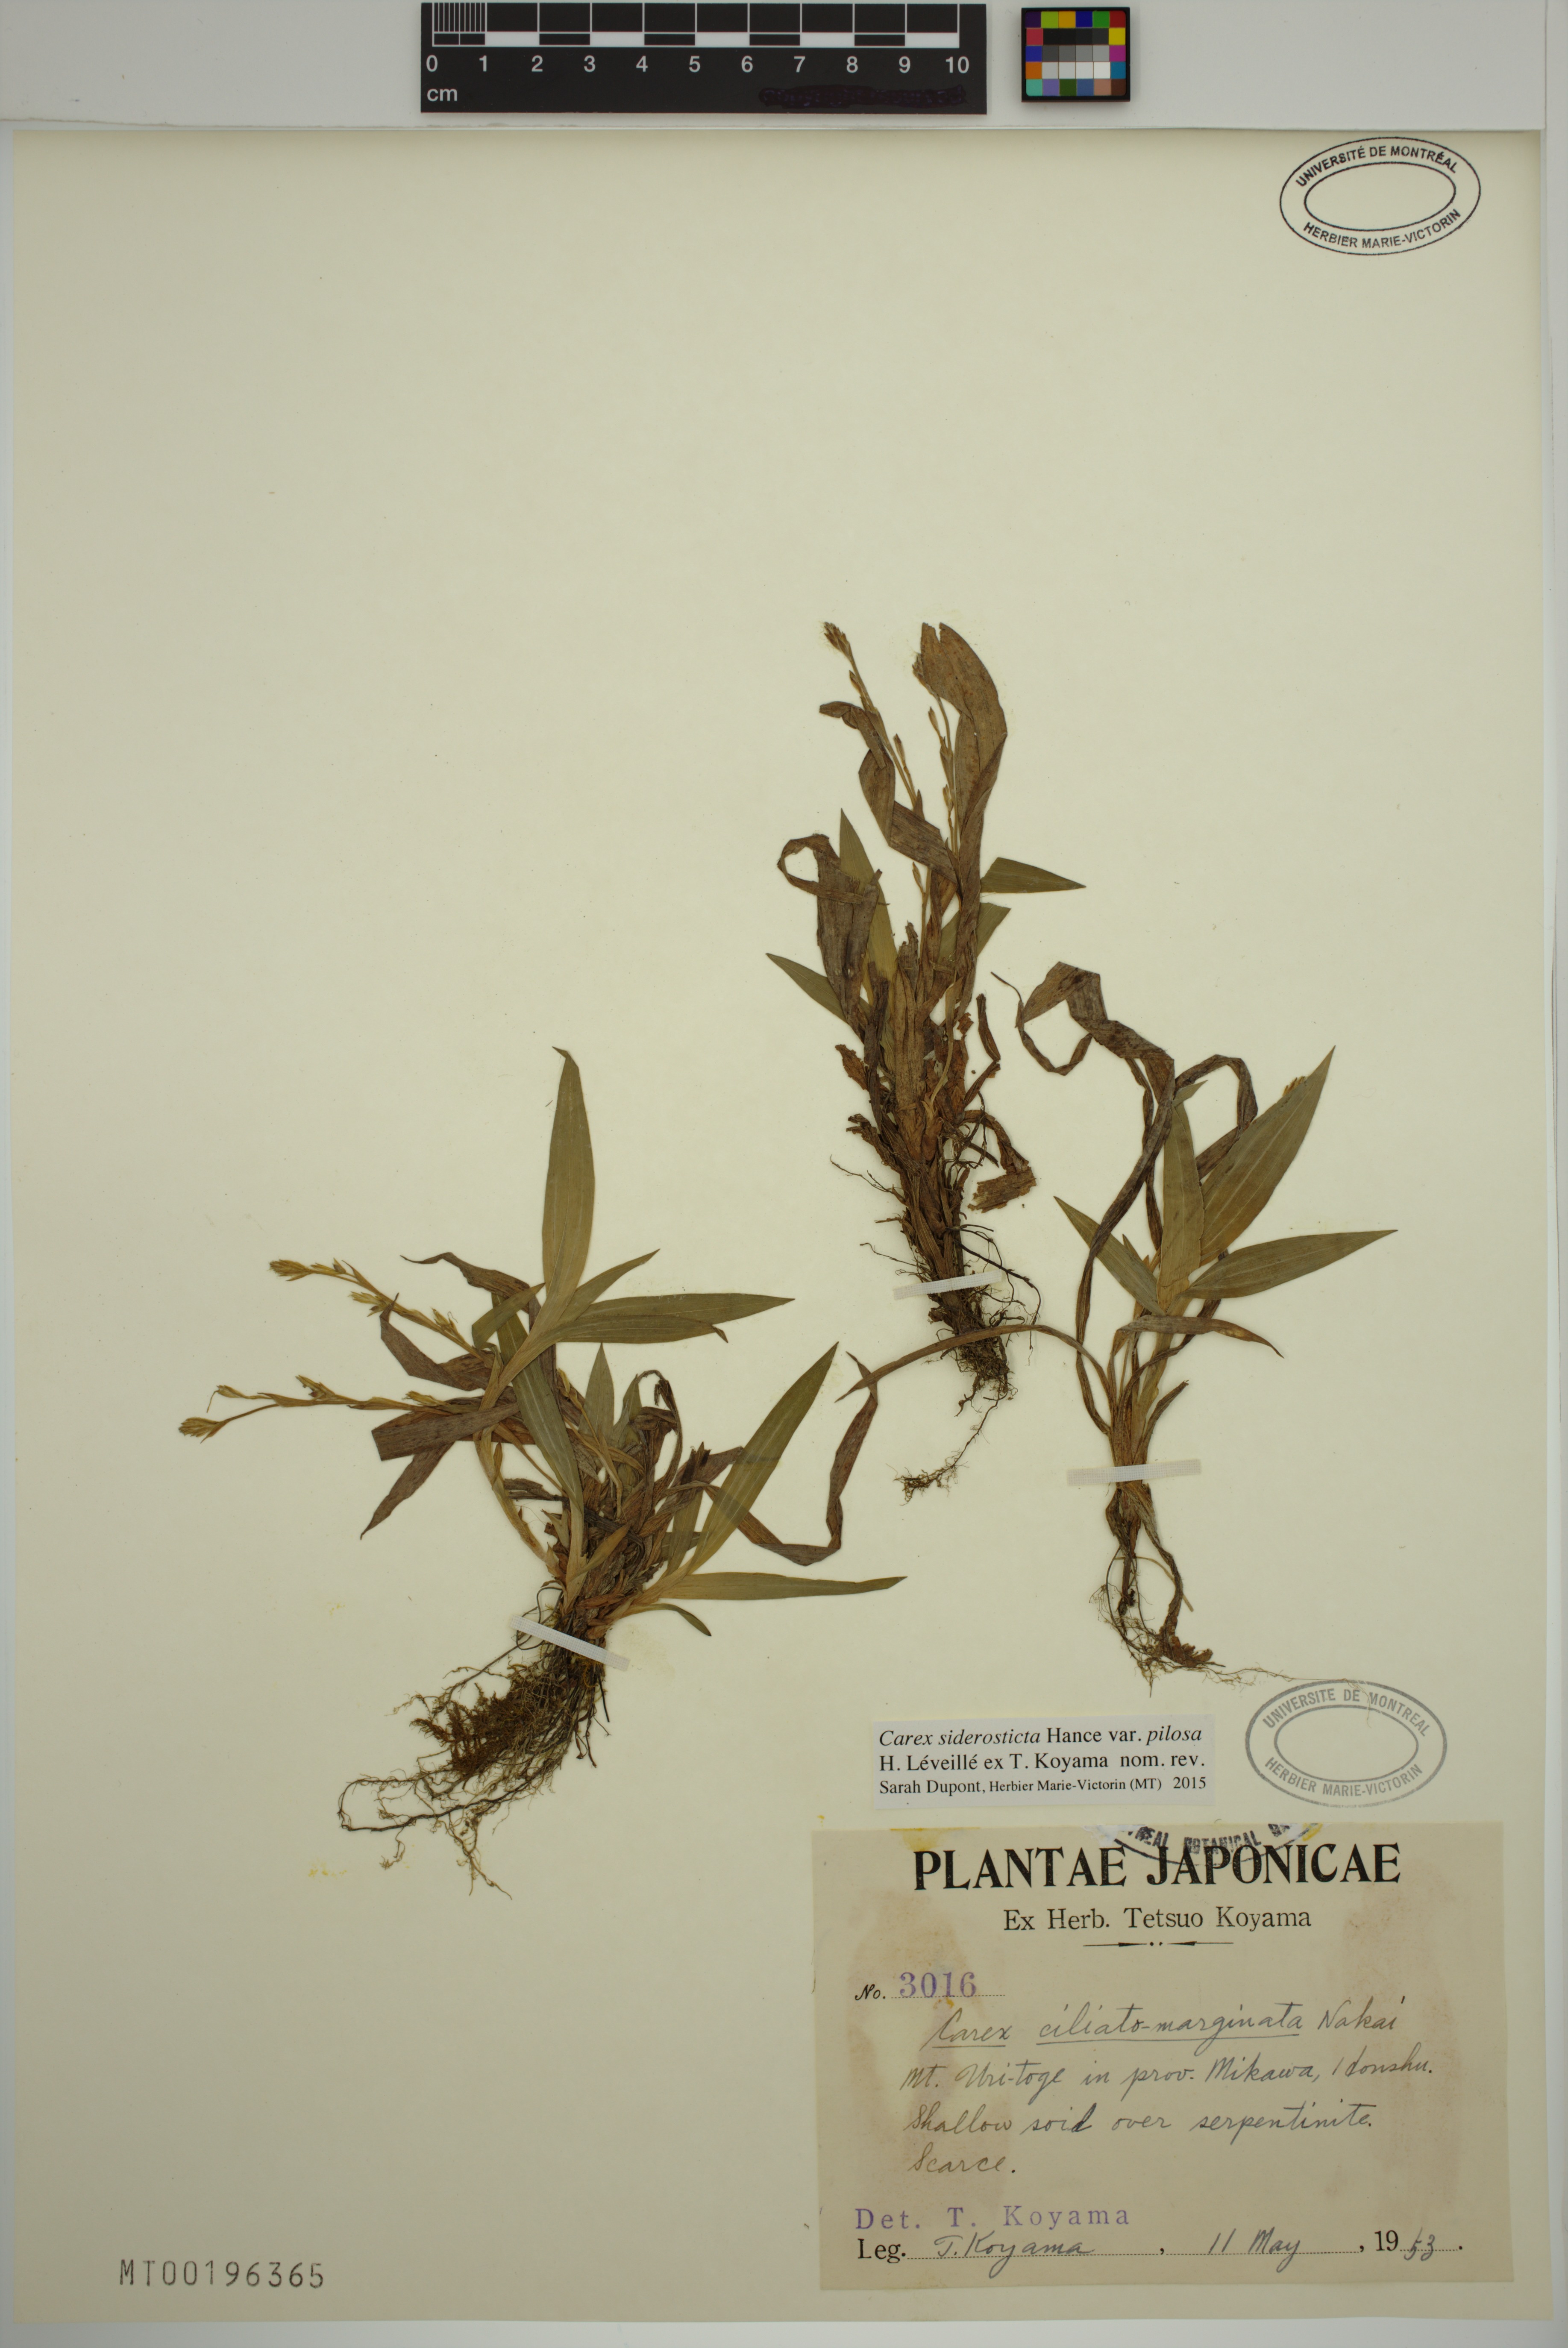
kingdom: Plantae
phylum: Tracheophyta
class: Liliopsida
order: Poales
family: Cyperaceae
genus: Carex
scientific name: Carex siderosticta
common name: Broadleaf sedge
